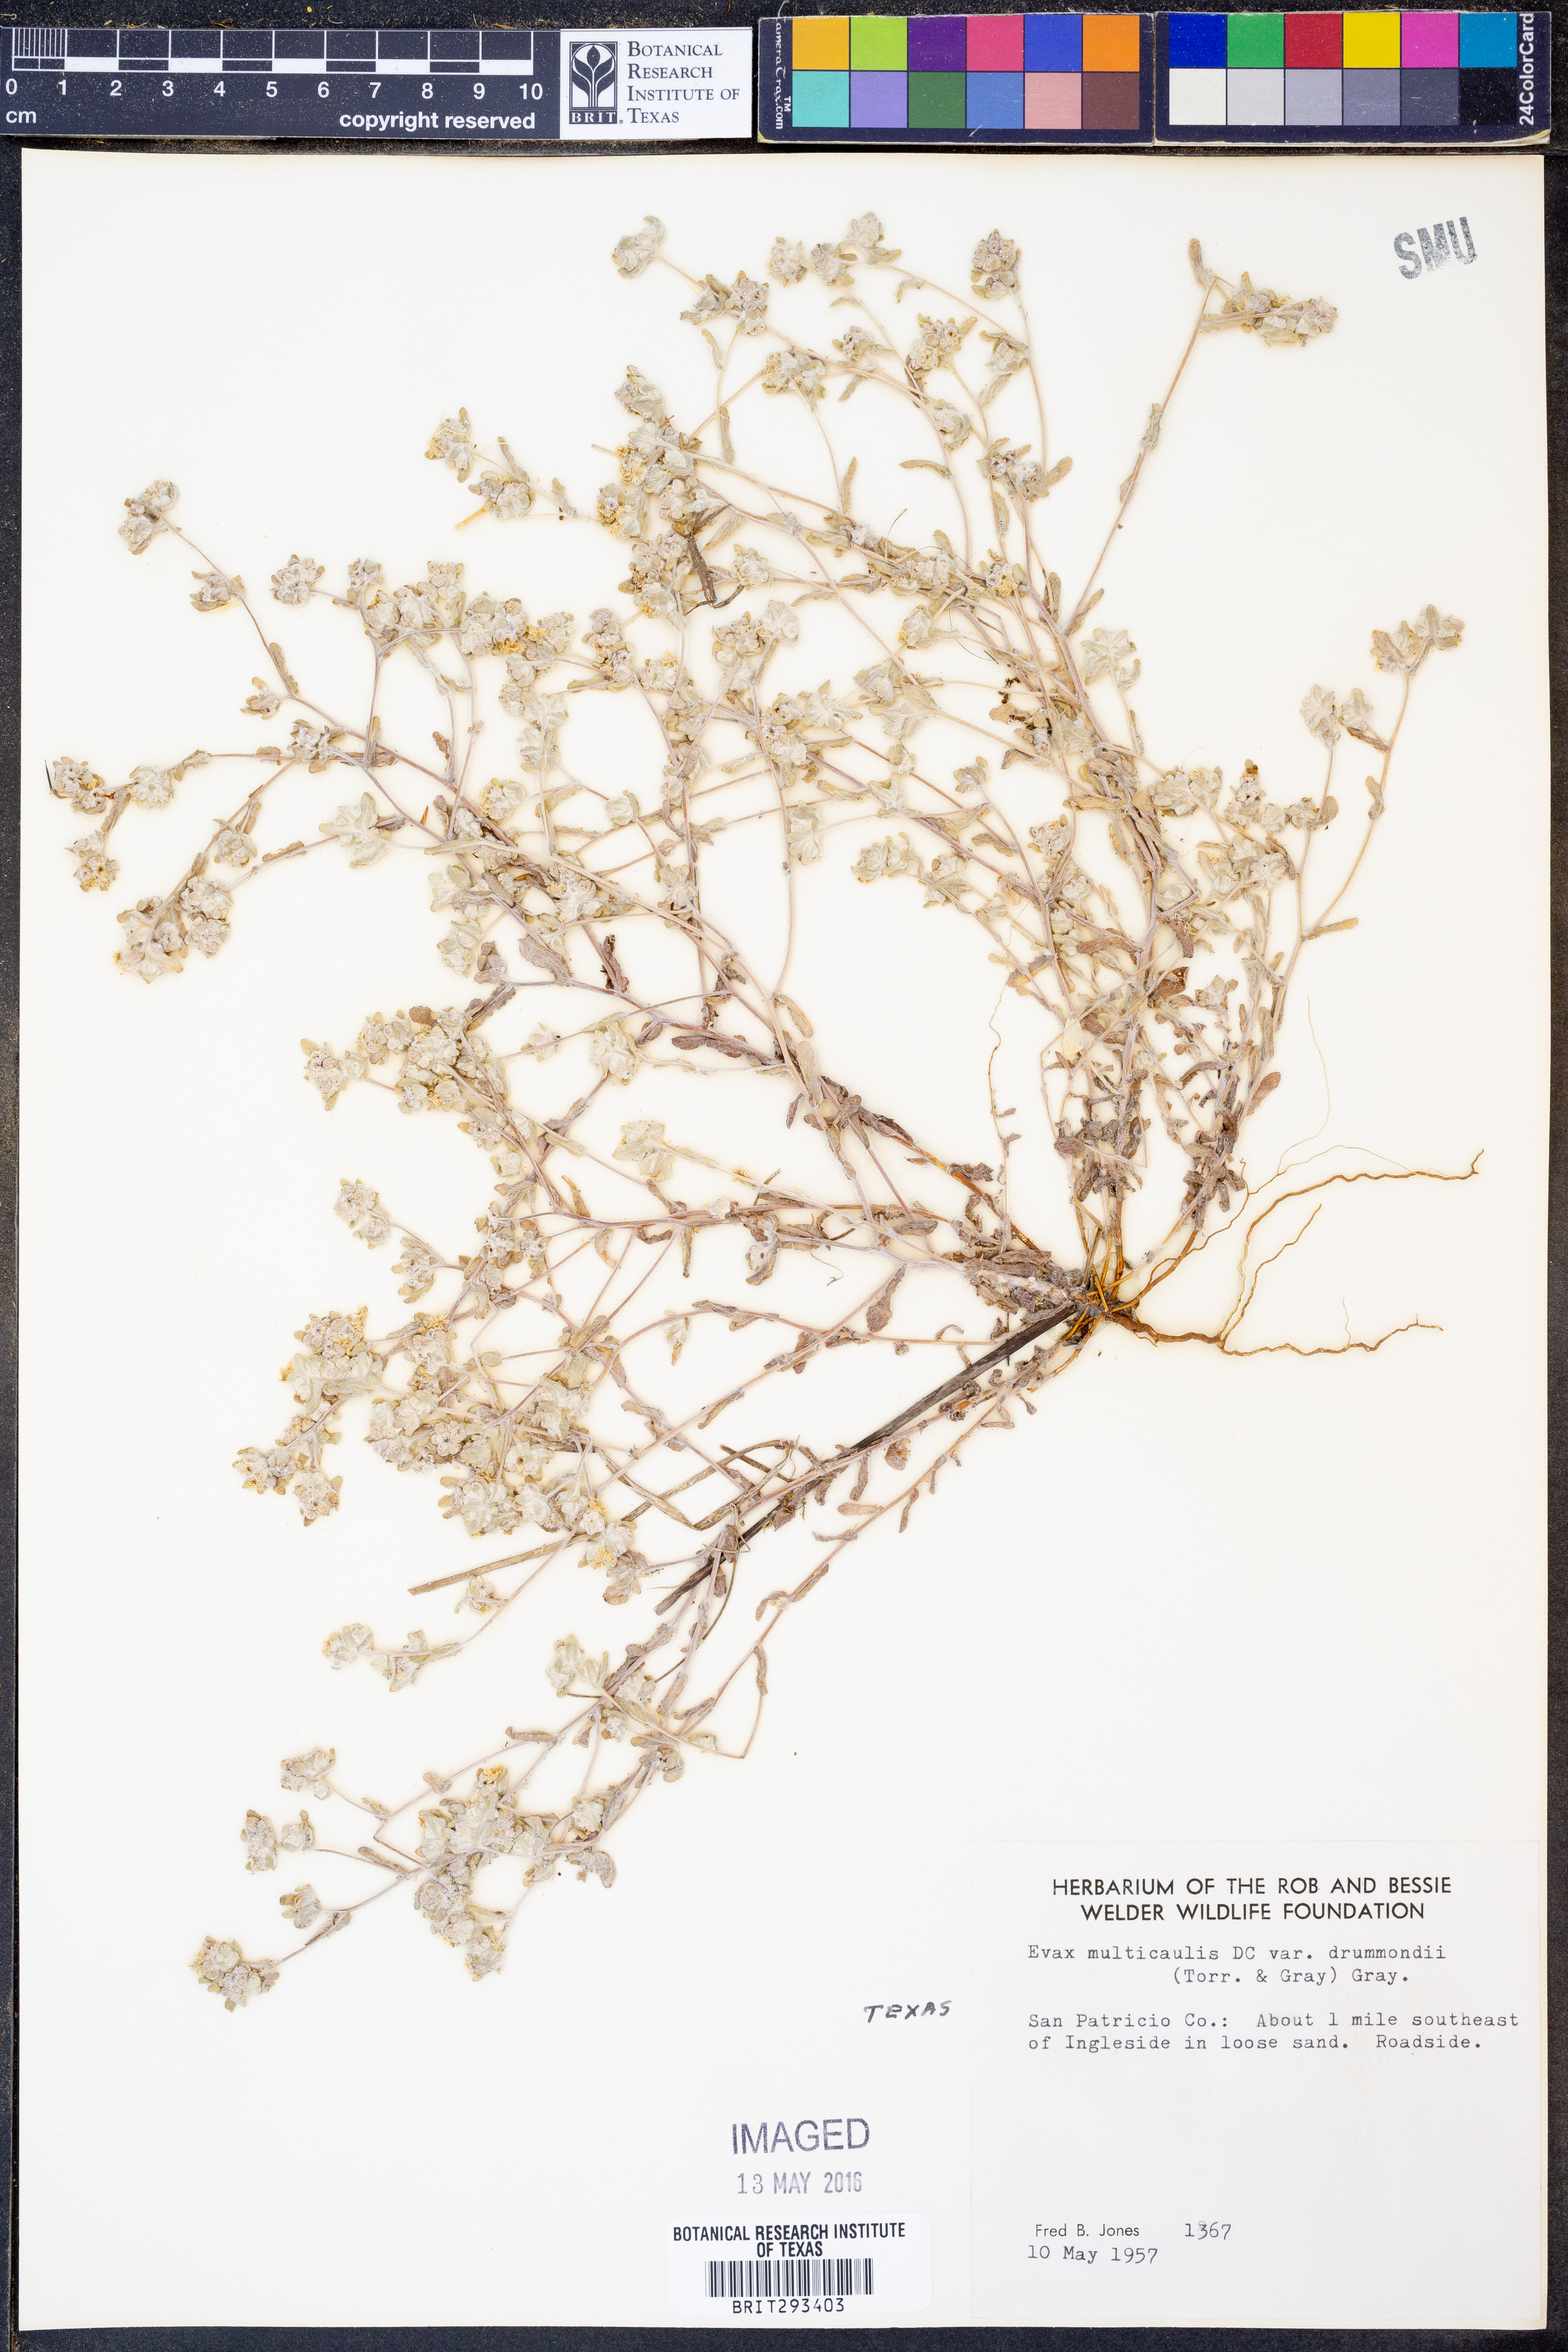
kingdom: Plantae
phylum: Tracheophyta
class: Magnoliopsida
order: Asterales
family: Asteraceae
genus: Diaperia
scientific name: Diaperia verna
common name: Many-stem rabbit-tobacco
